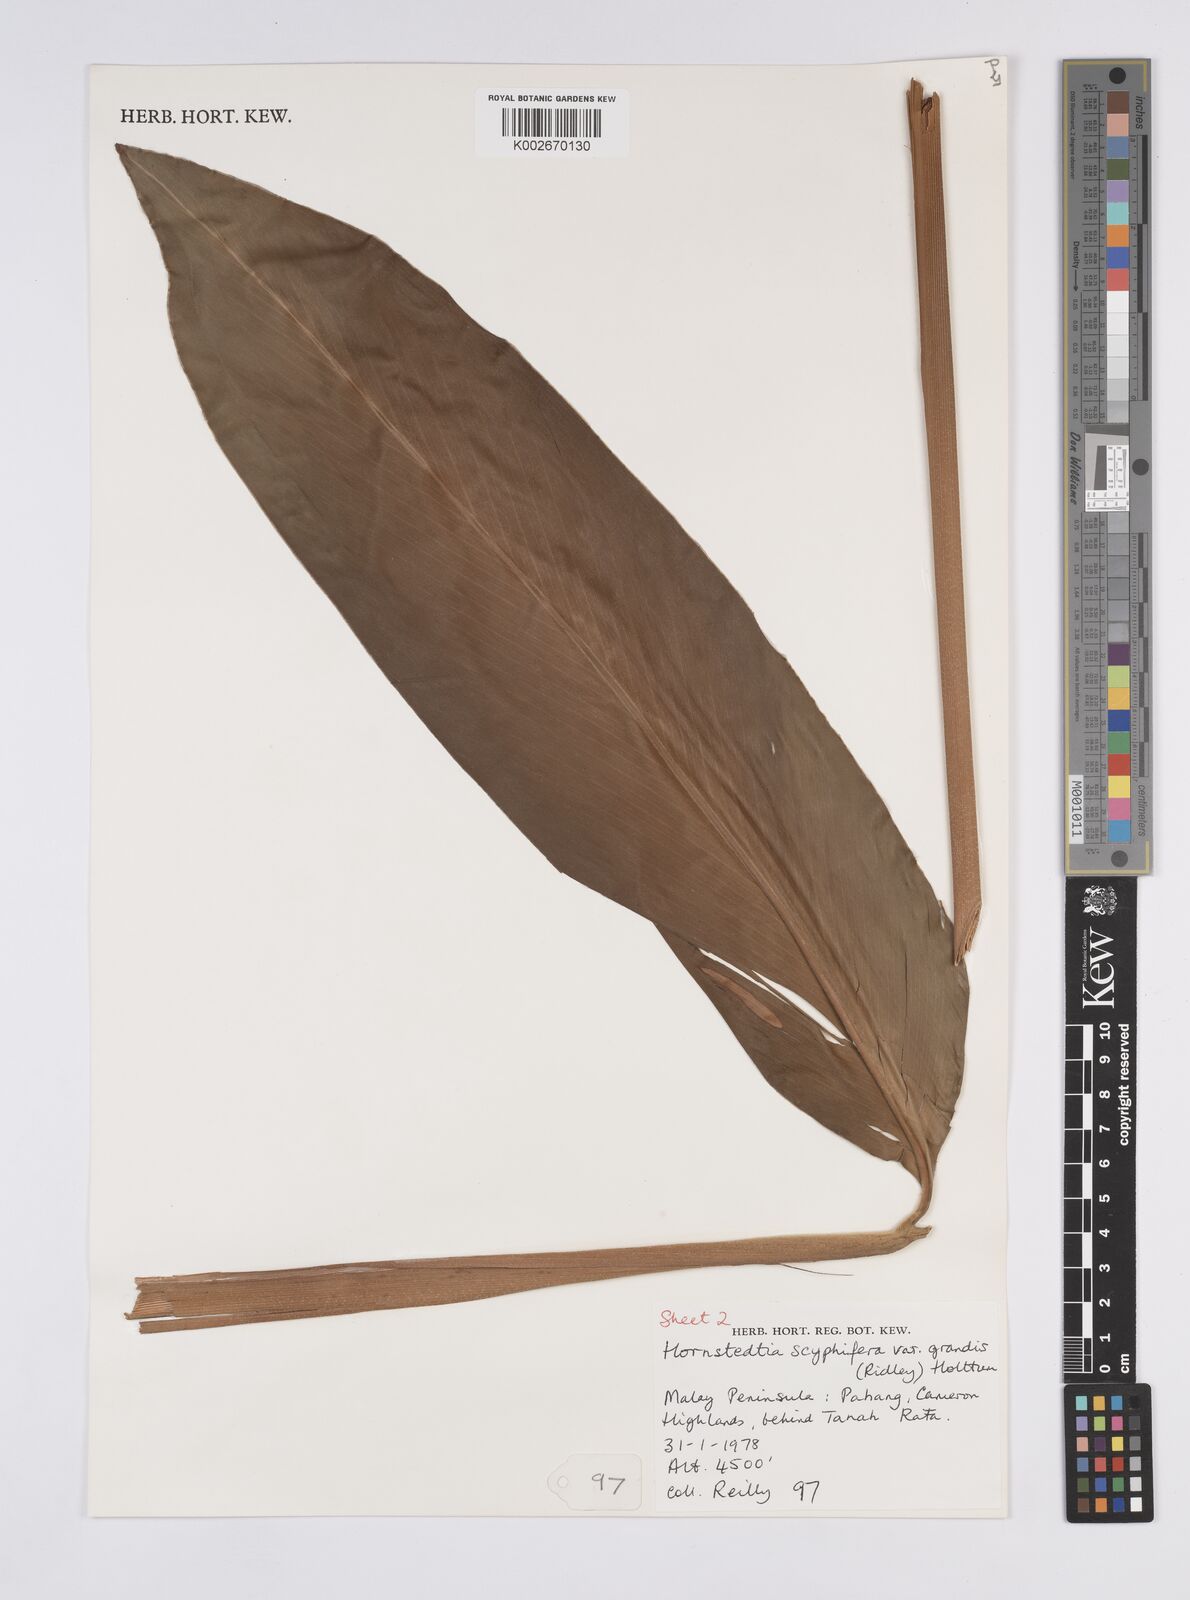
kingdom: Plantae
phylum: Tracheophyta
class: Liliopsida
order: Zingiberales
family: Zingiberaceae
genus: Hornstedtia
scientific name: Hornstedtia scyphifera
